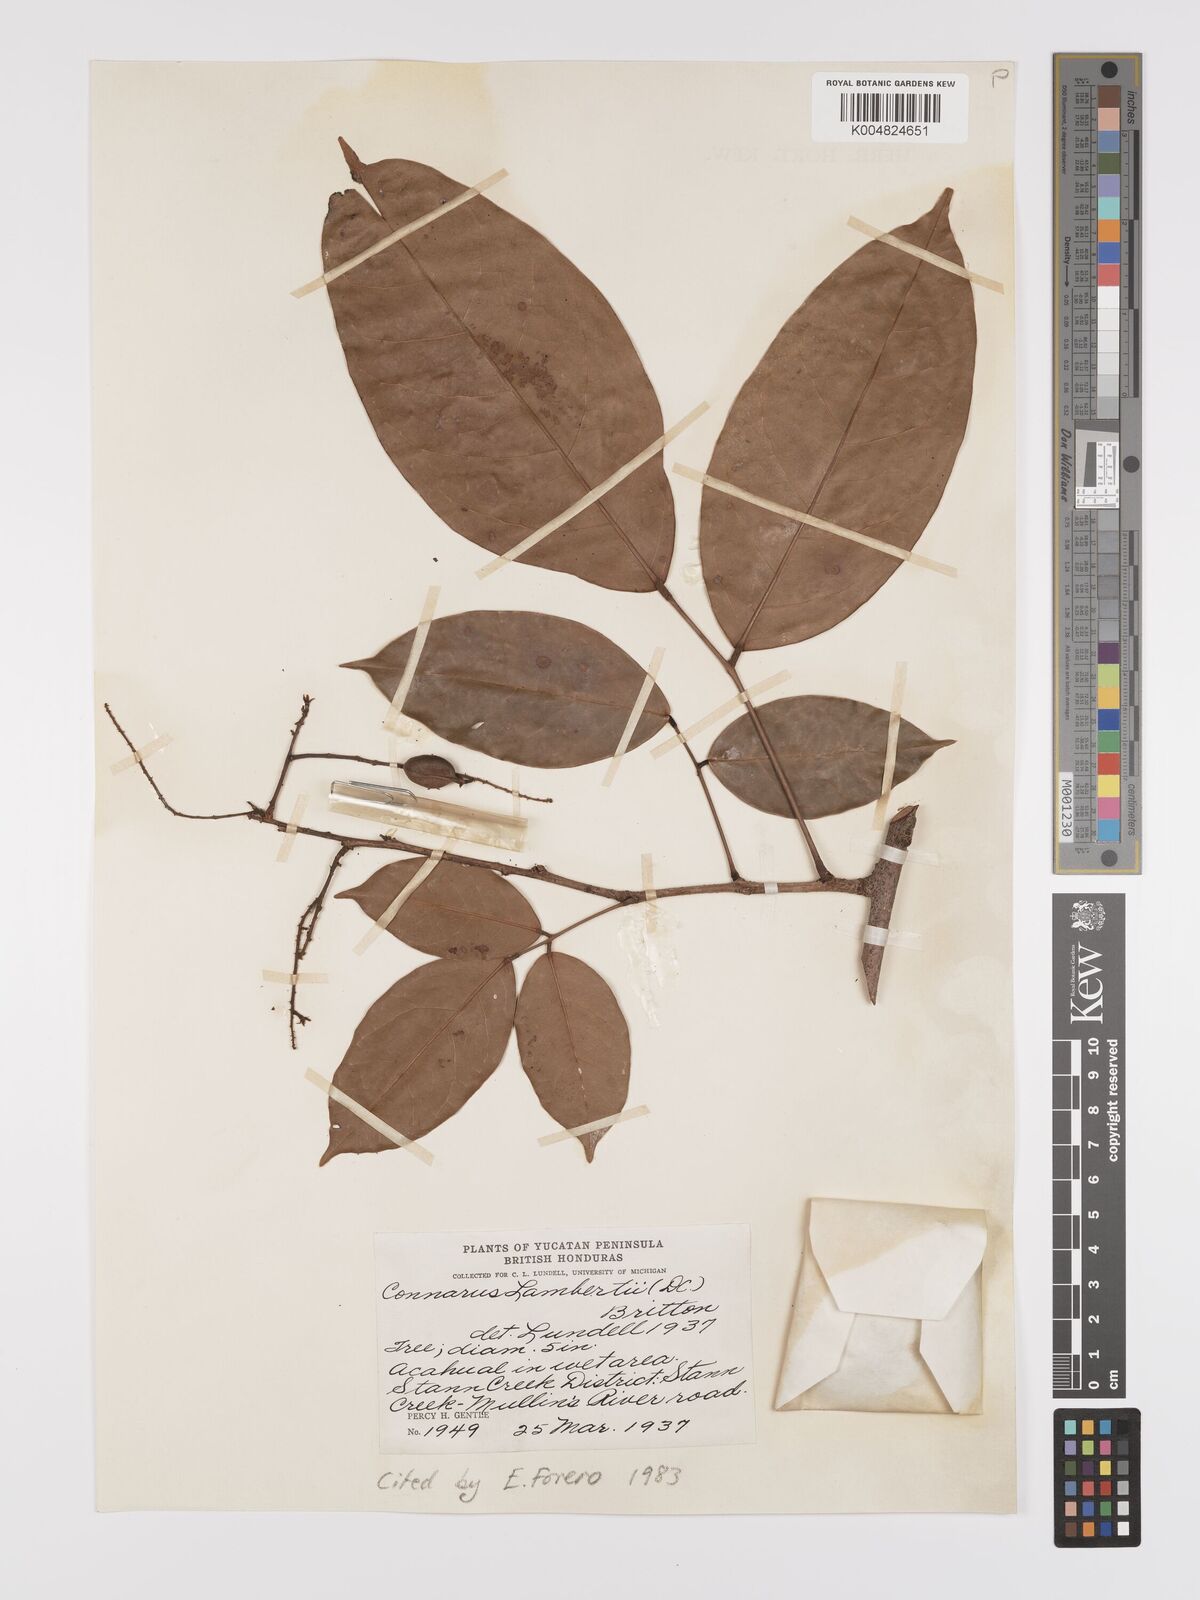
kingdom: Plantae
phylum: Tracheophyta
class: Magnoliopsida
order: Oxalidales
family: Connaraceae
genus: Connarus
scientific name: Connarus lambertii
